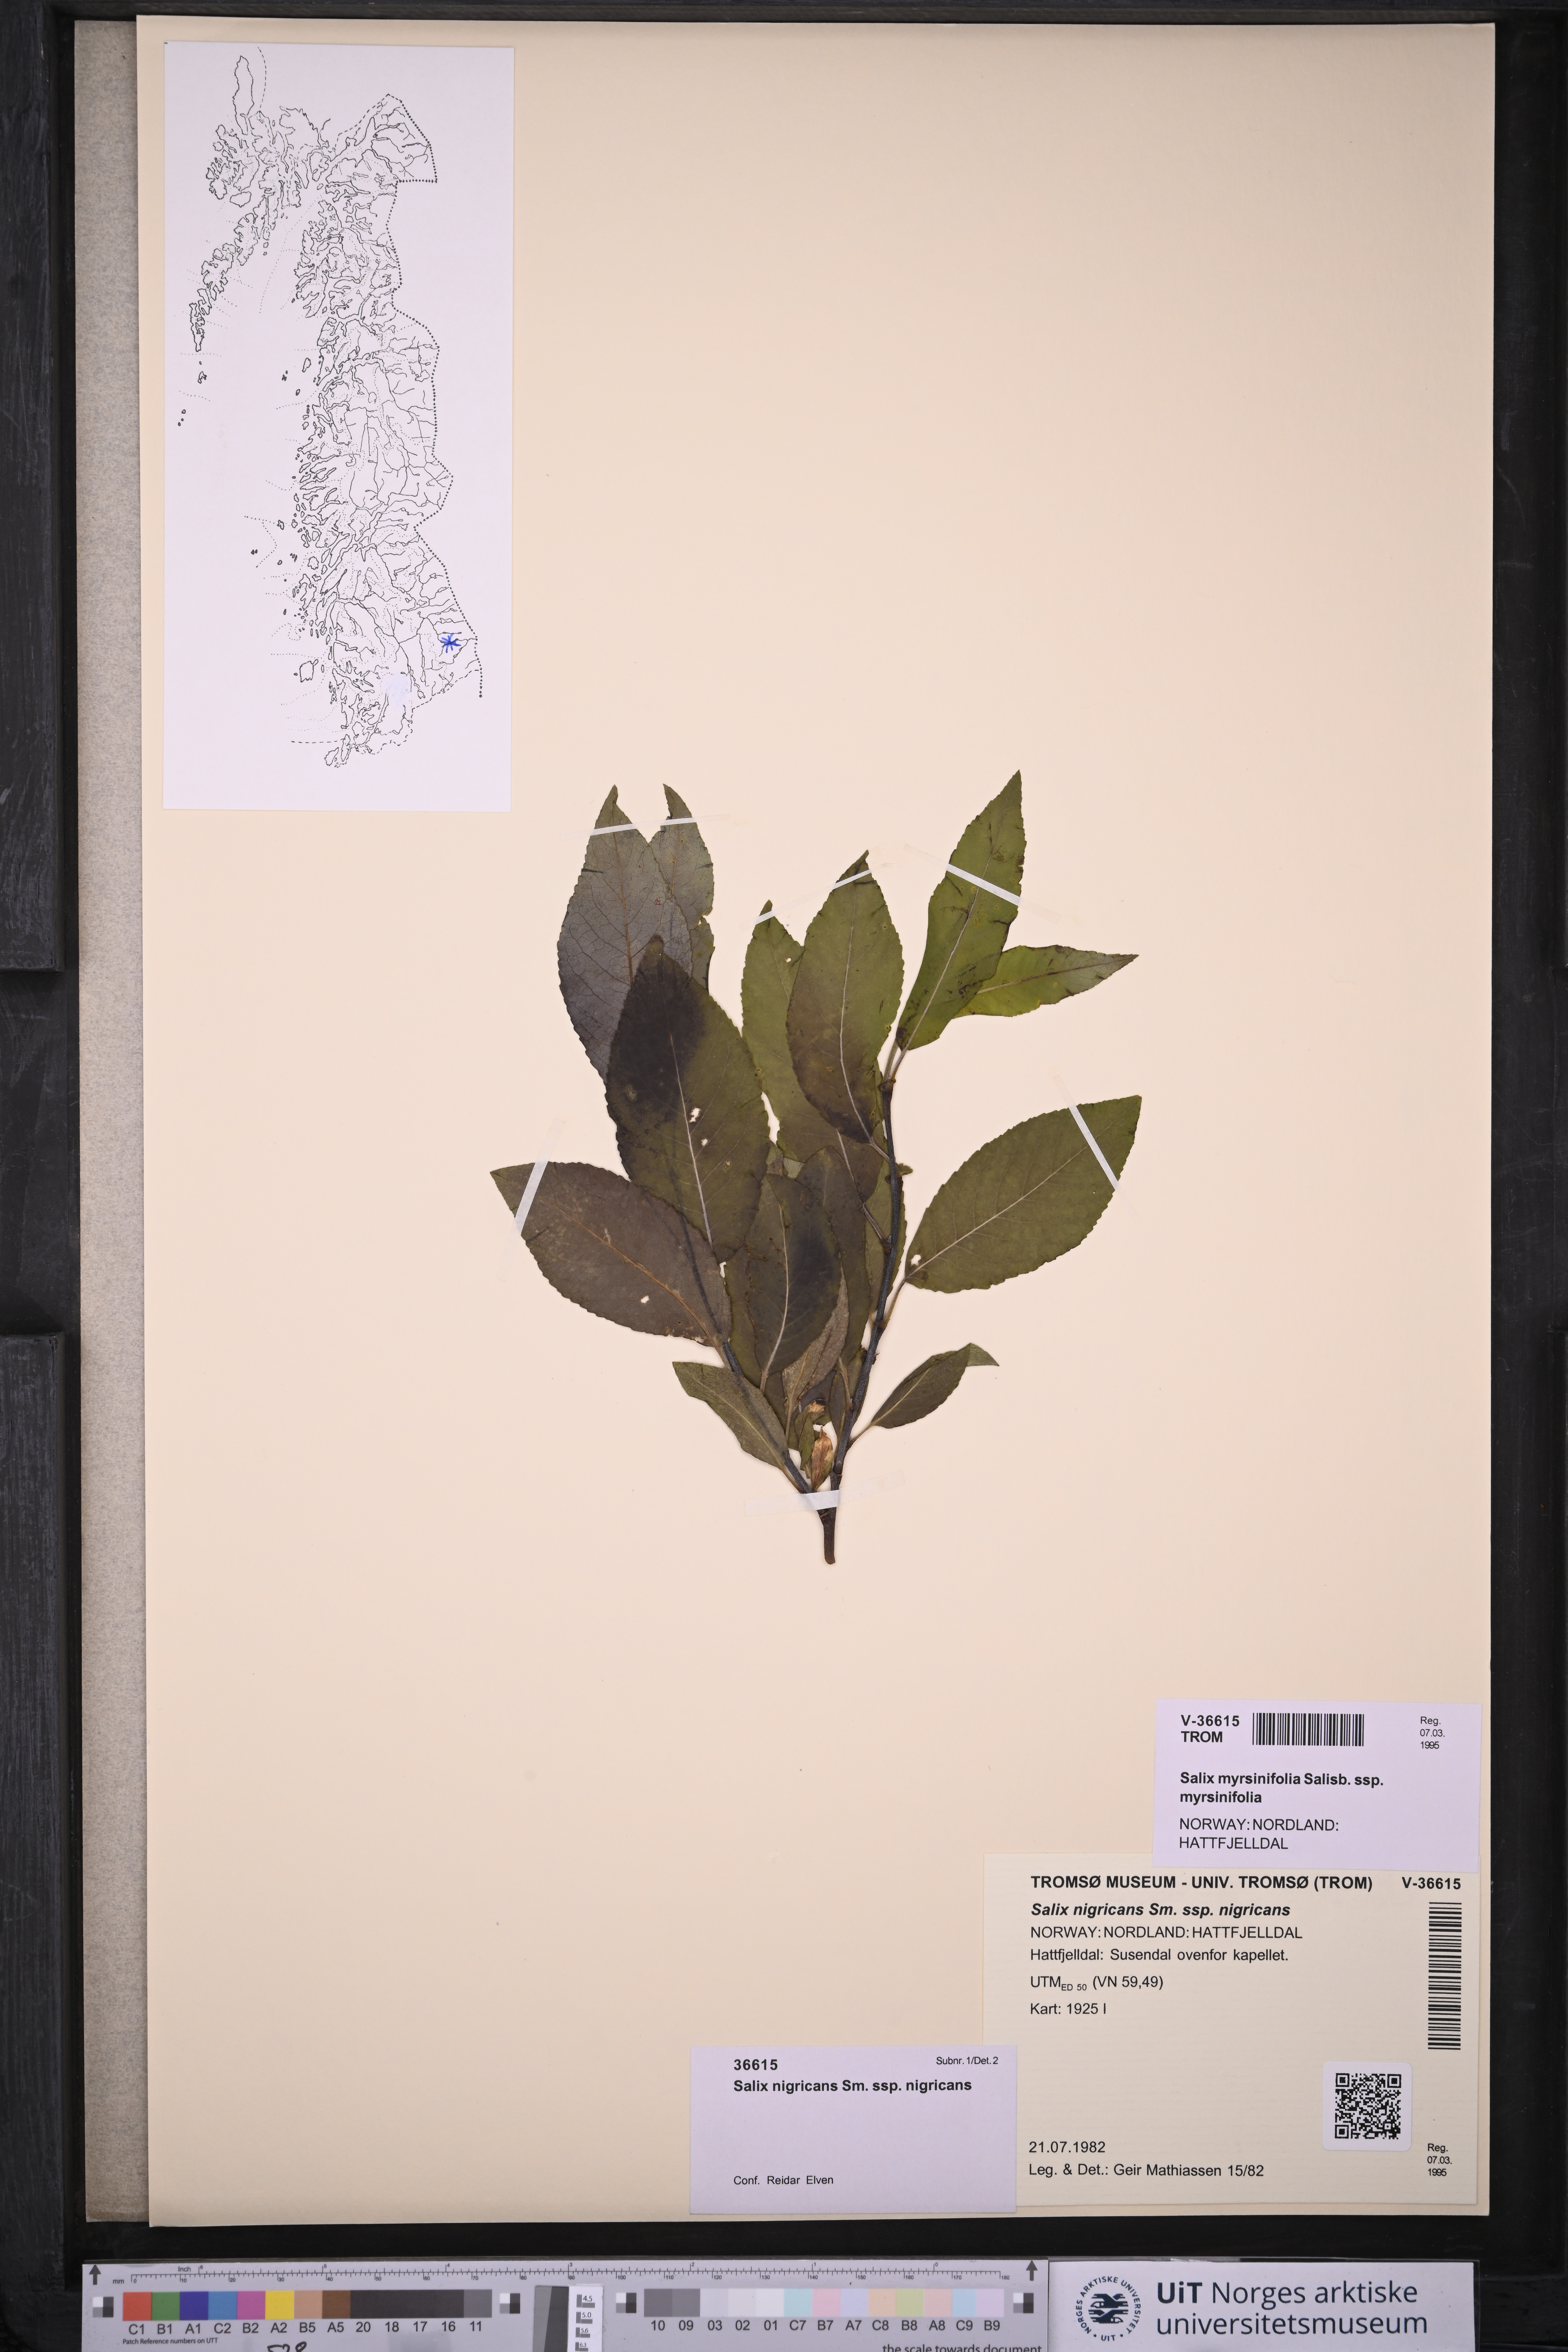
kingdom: Plantae
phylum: Tracheophyta
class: Magnoliopsida
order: Malpighiales
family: Salicaceae
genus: Salix
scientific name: Salix myrsinifolia
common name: Dark-leaved willow
